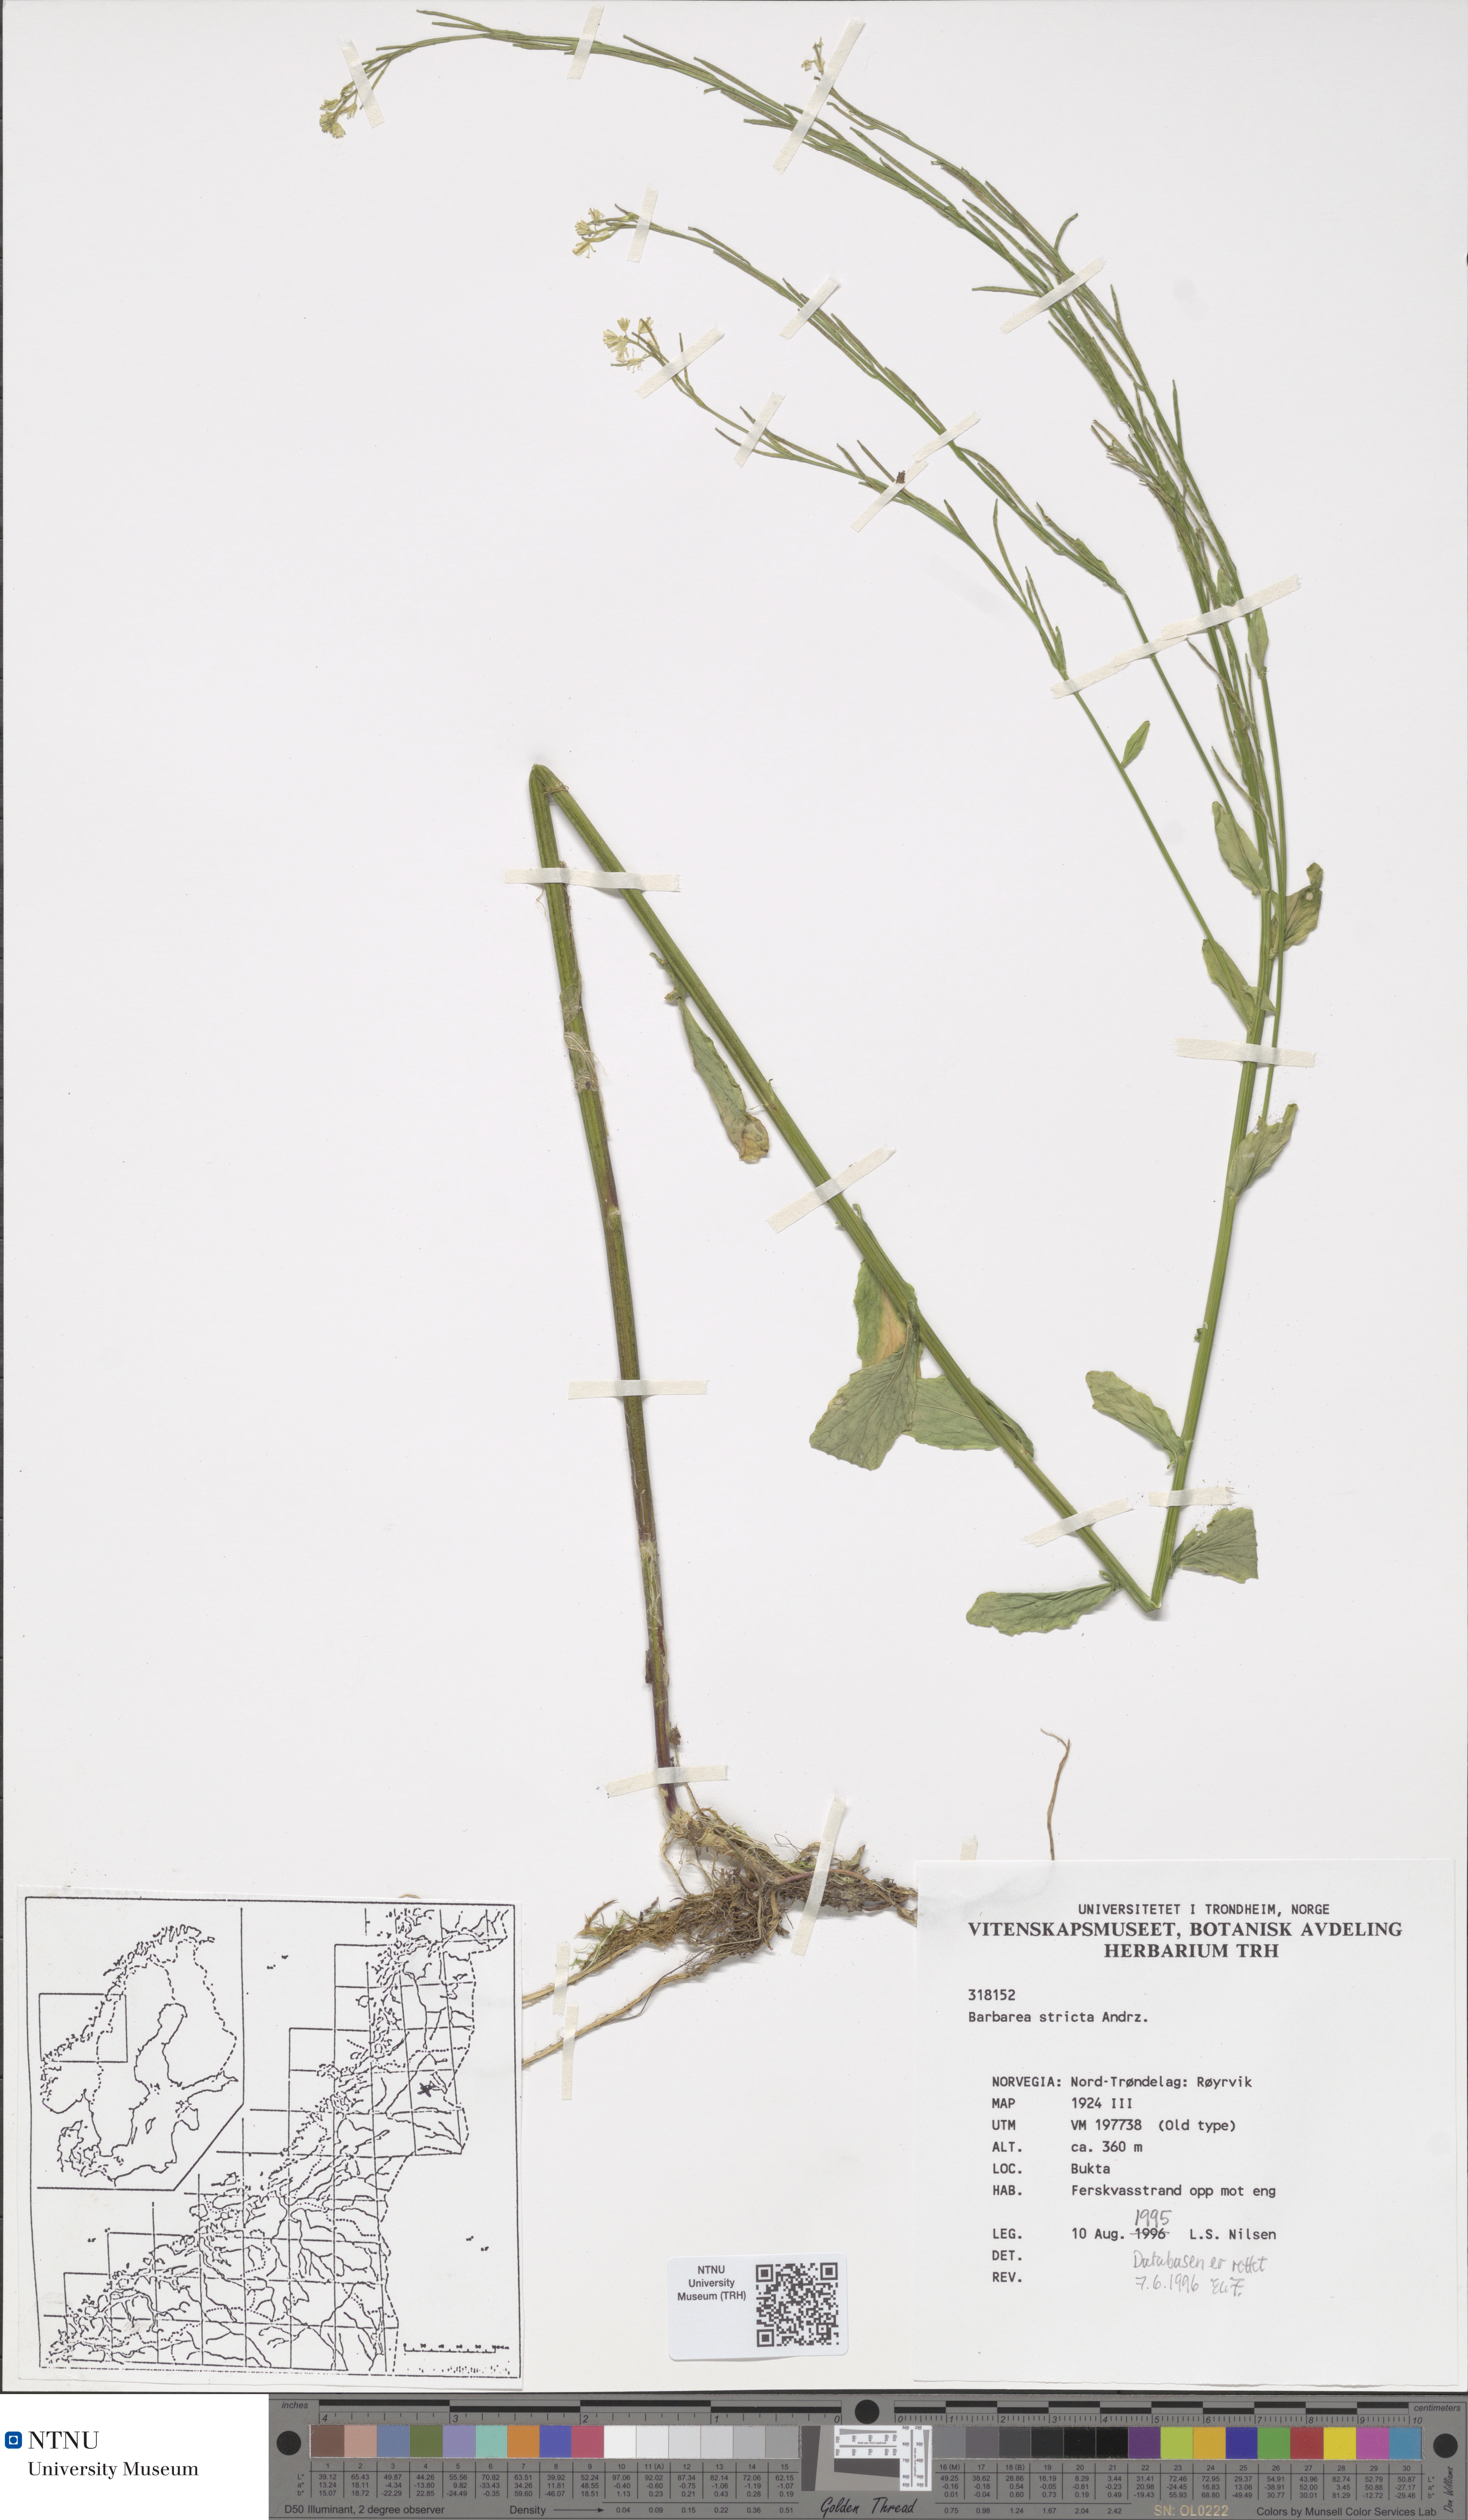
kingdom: Plantae
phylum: Tracheophyta
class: Magnoliopsida
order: Brassicales
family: Brassicaceae
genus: Barbarea
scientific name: Barbarea stricta
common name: Small-flowered winter-cress
